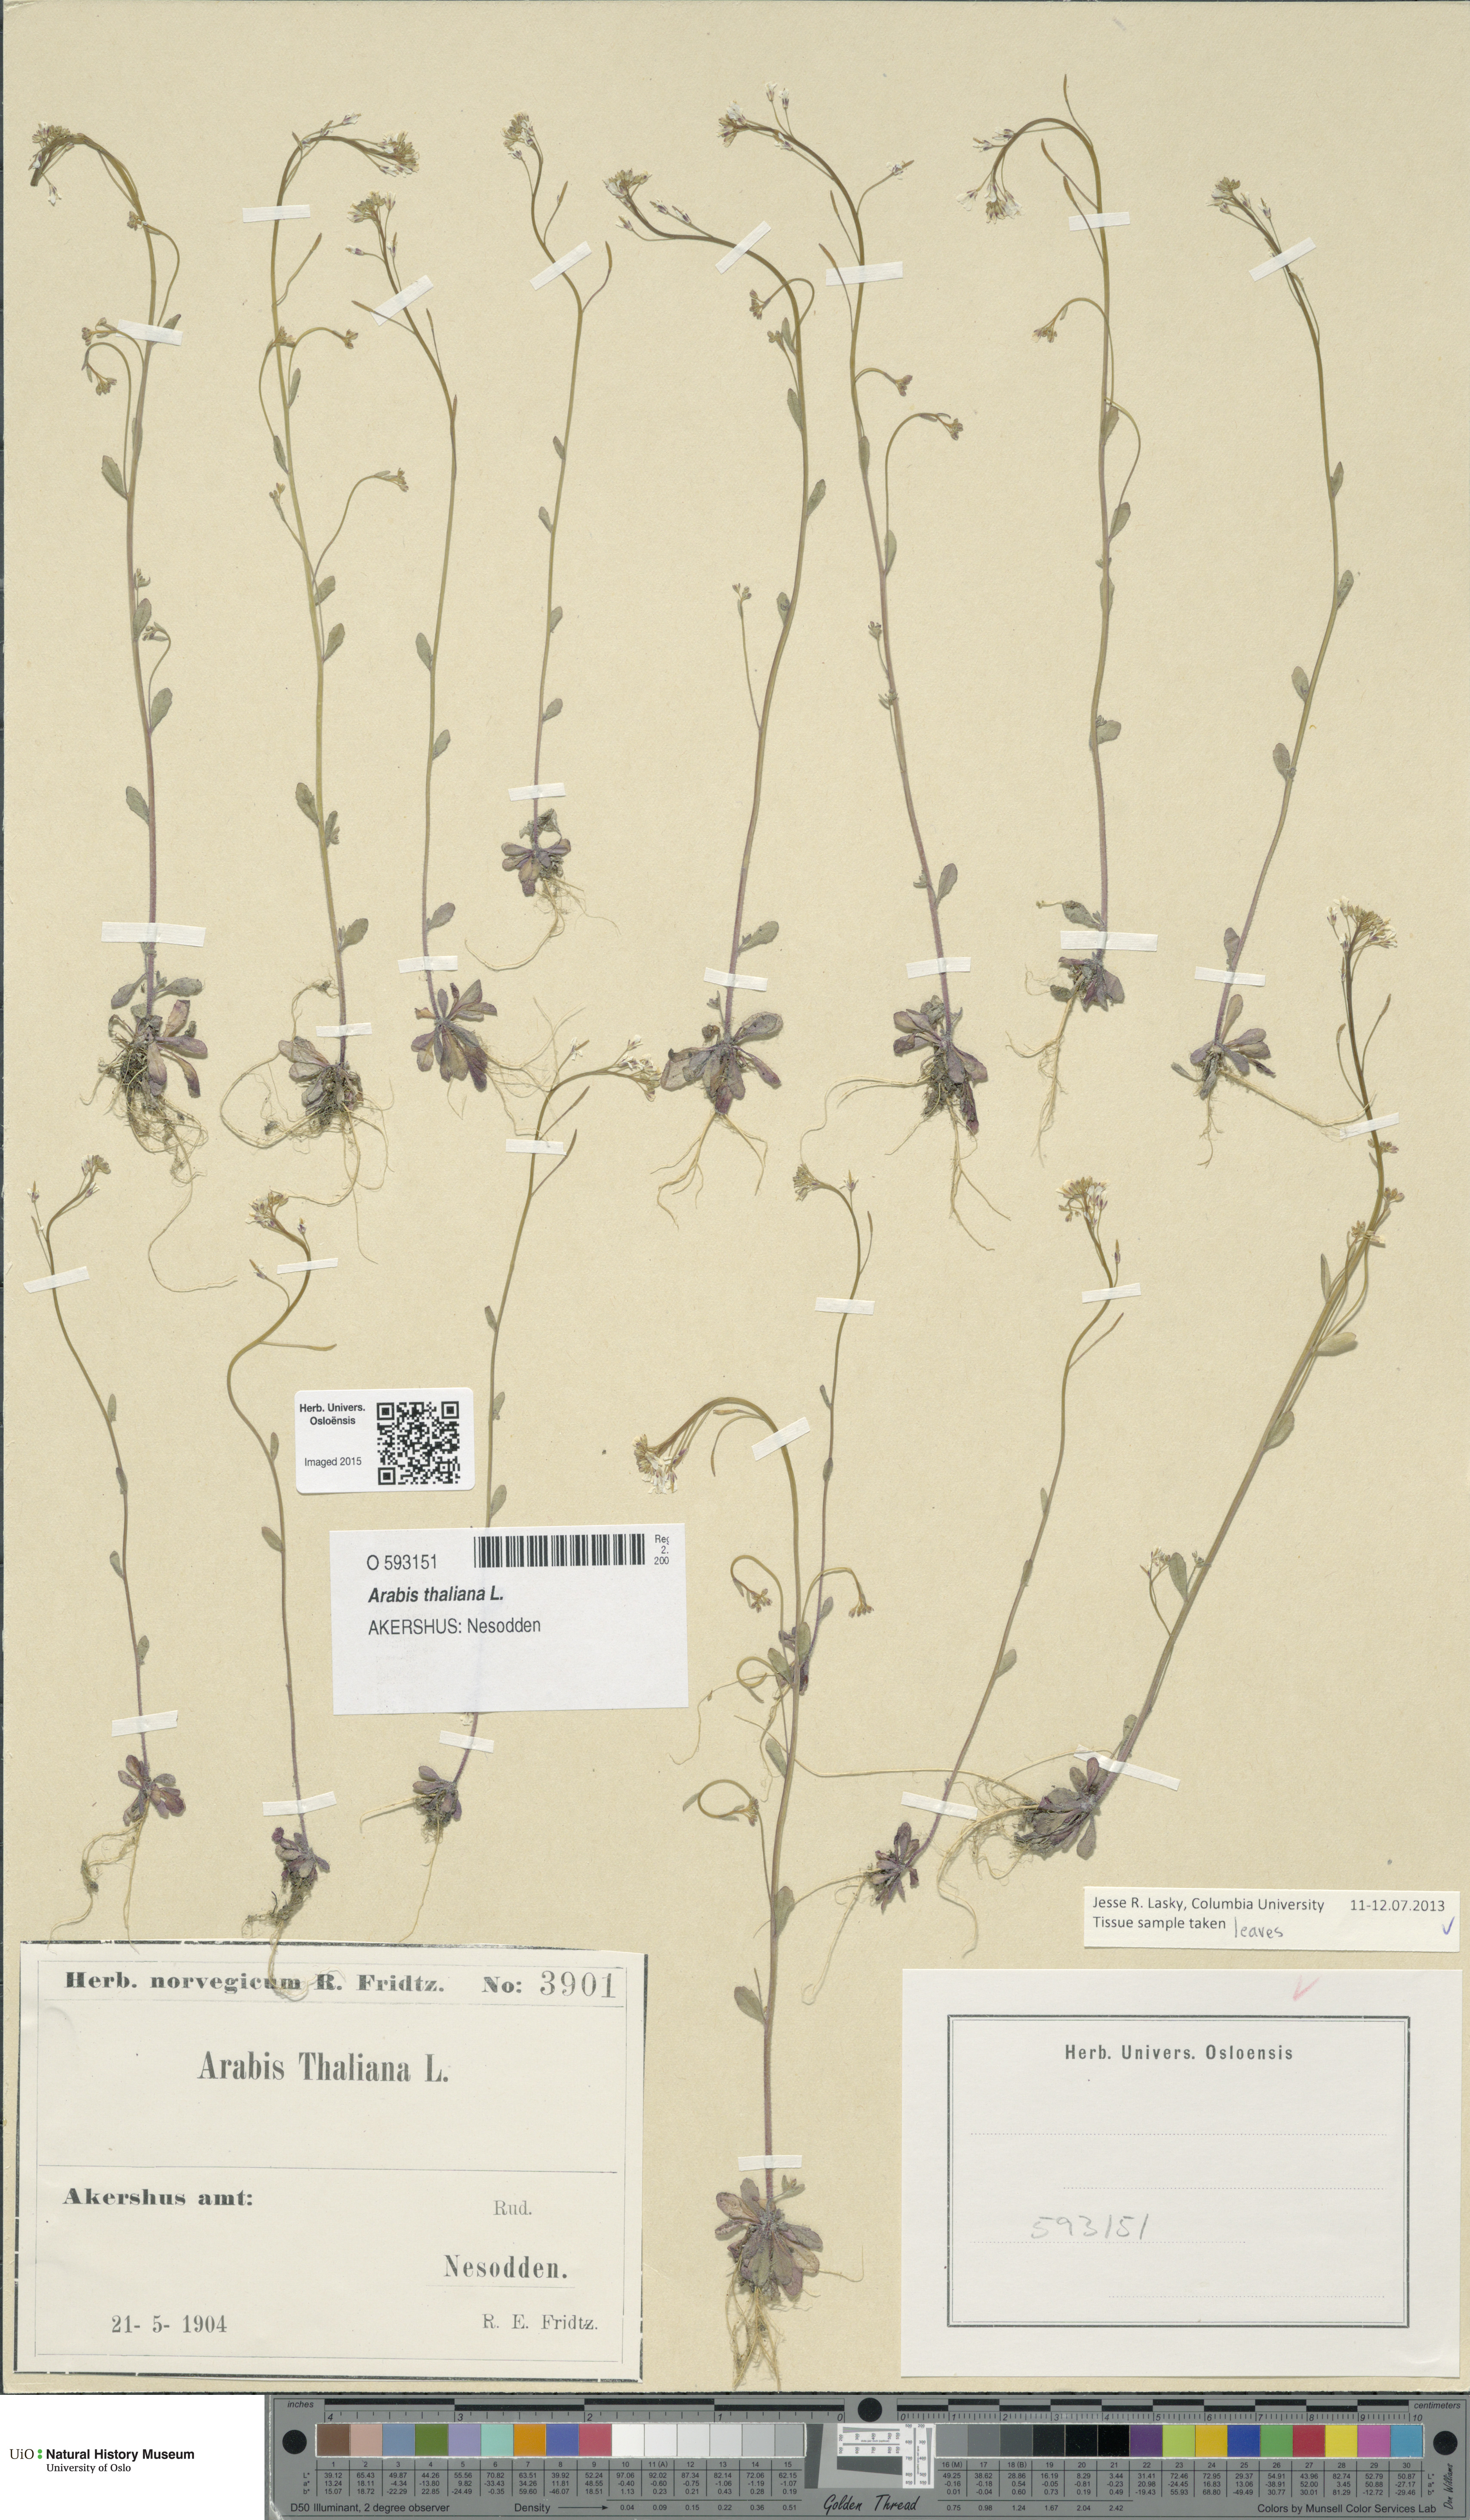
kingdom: Plantae
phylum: Tracheophyta
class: Magnoliopsida
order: Brassicales
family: Brassicaceae
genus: Arabidopsis
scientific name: Arabidopsis thaliana
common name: Thale cress
